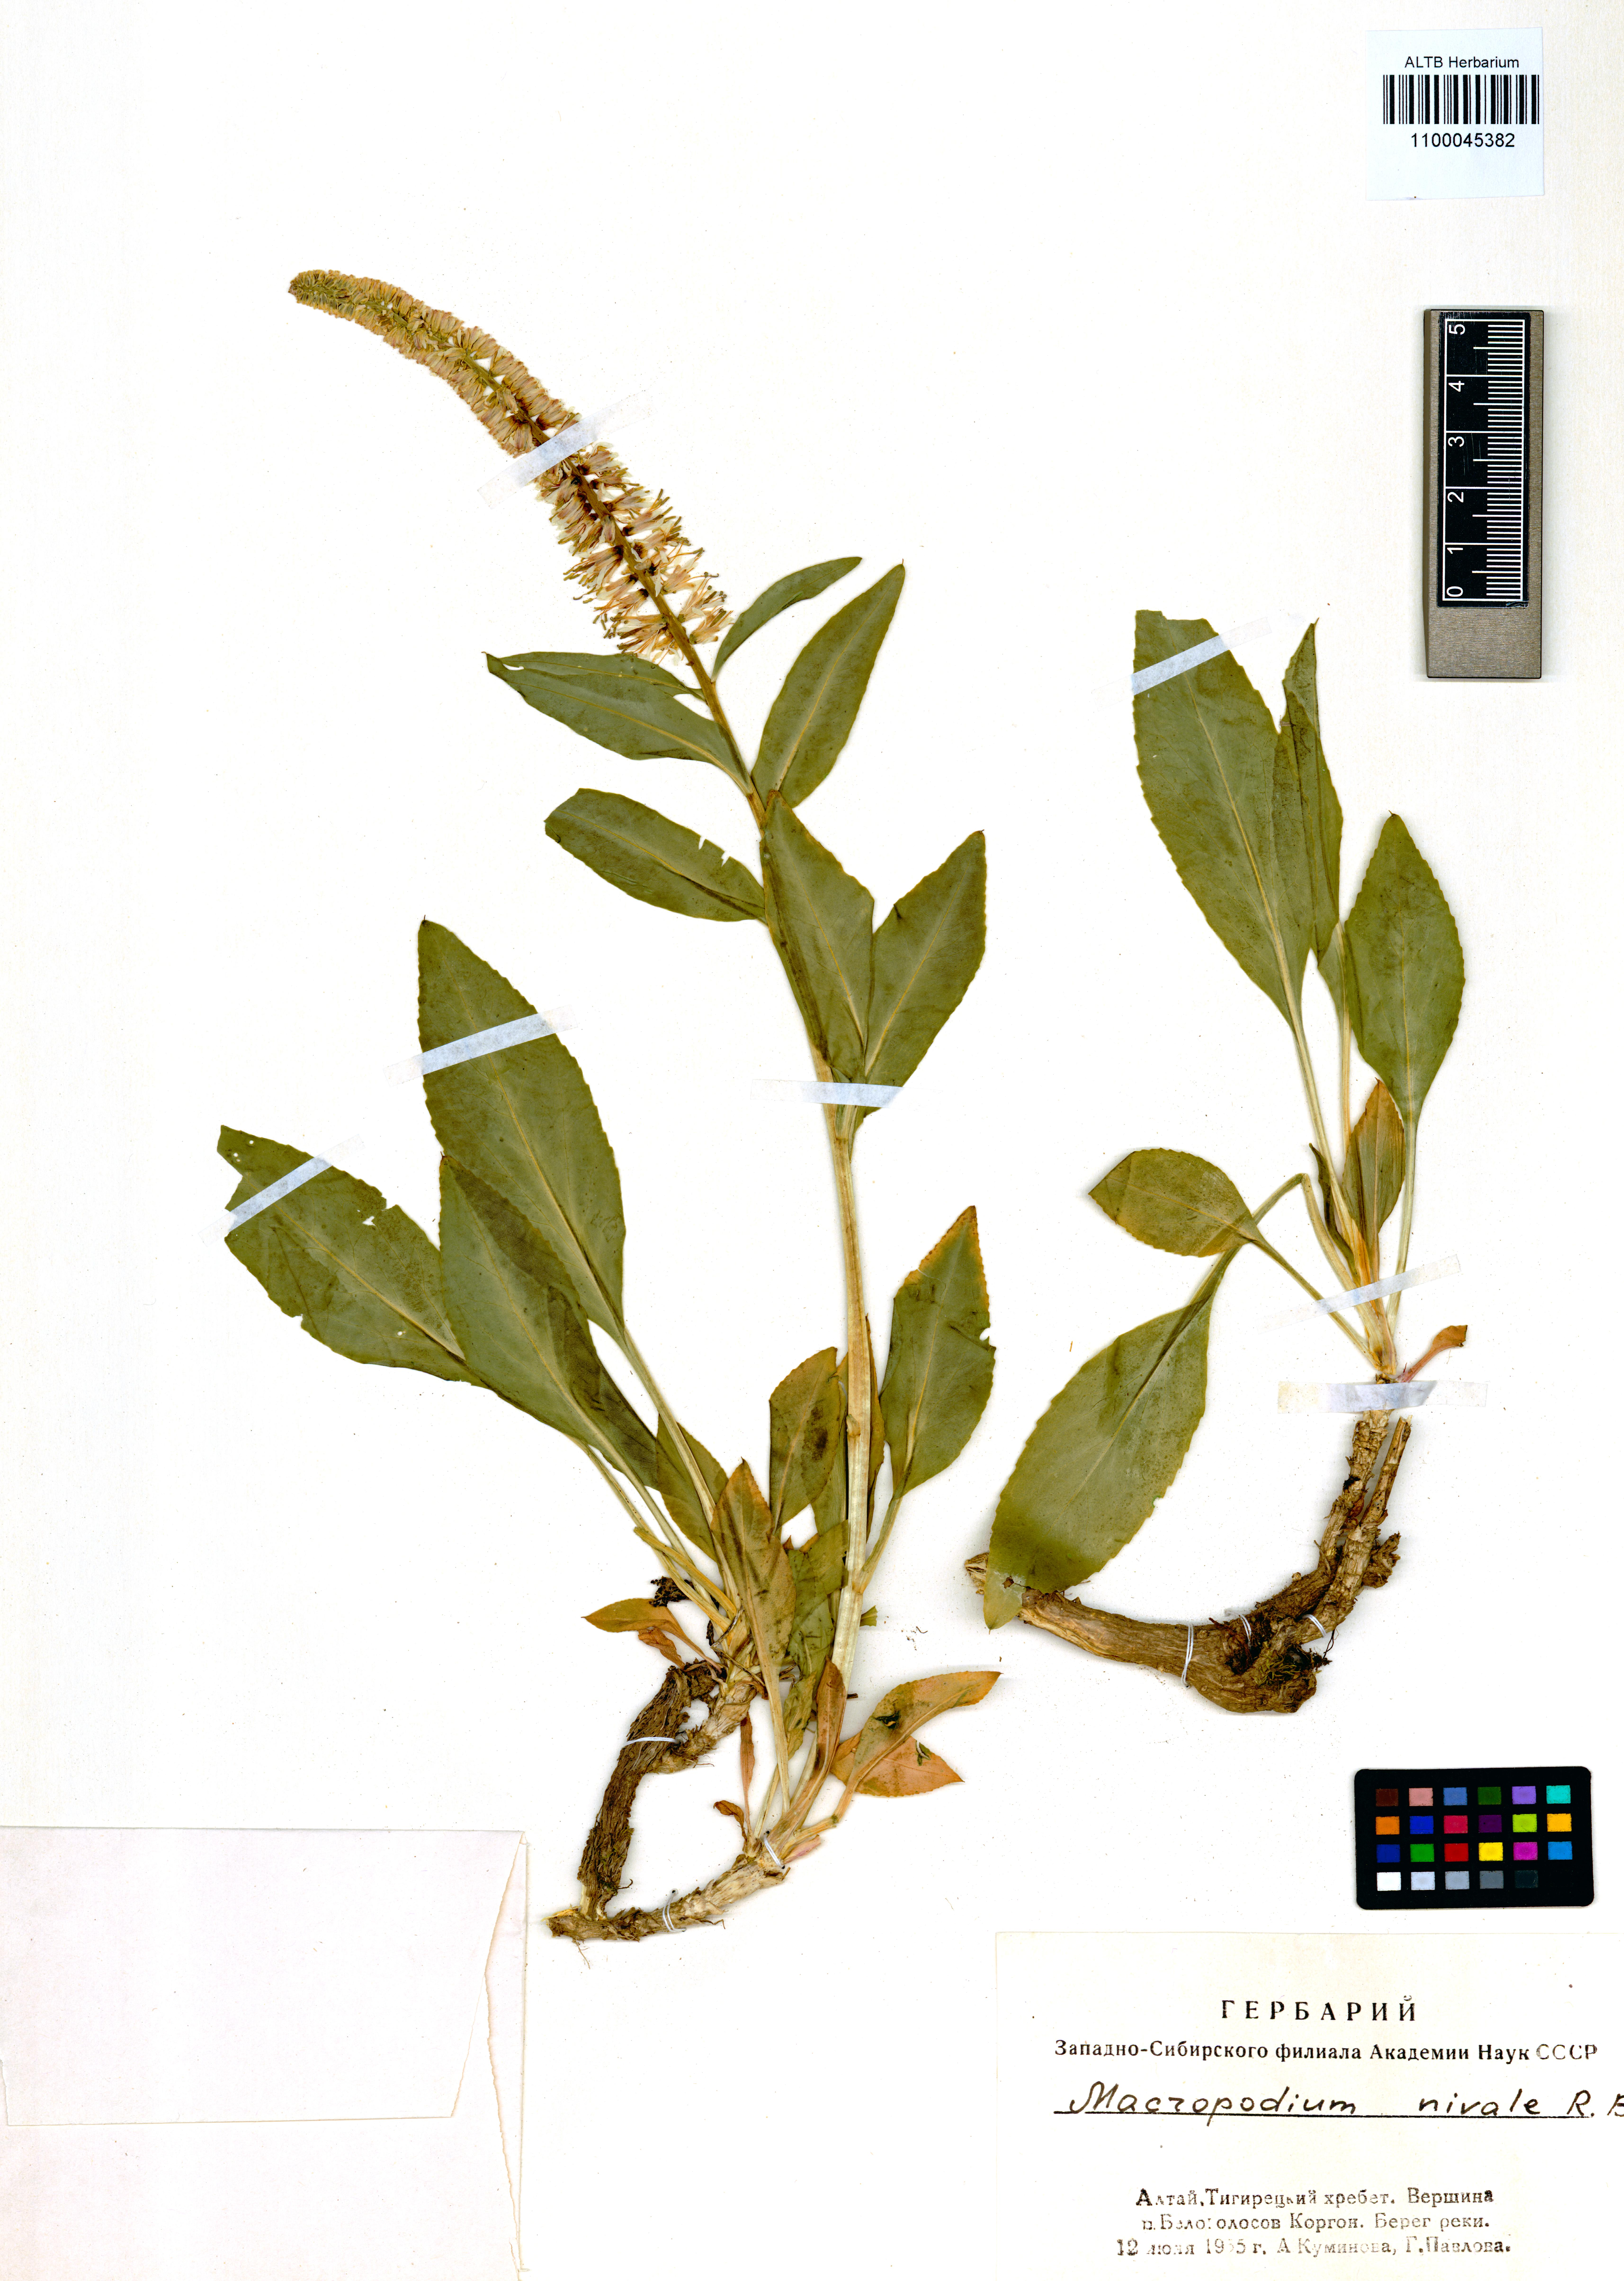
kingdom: Plantae
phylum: Tracheophyta
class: Magnoliopsida
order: Brassicales
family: Brassicaceae
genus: Macropodium
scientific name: Macropodium nivale
